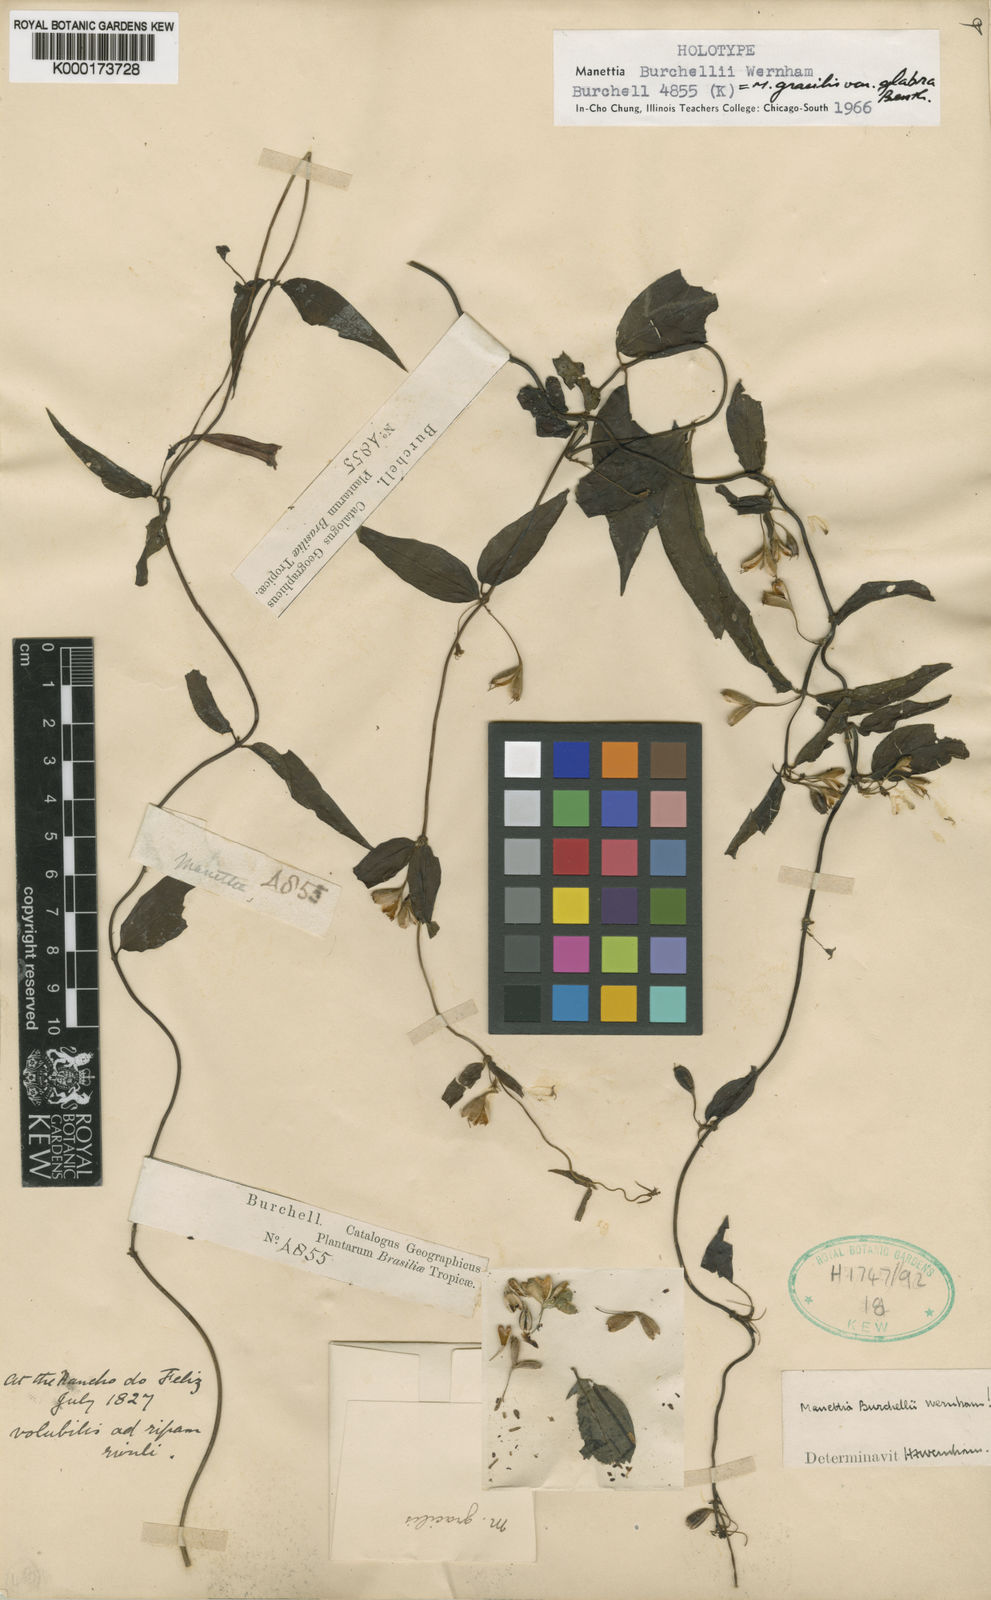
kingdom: Plantae
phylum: Tracheophyta
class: Magnoliopsida
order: Gentianales
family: Rubiaceae
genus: Manettia
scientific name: Manettia gracilis
